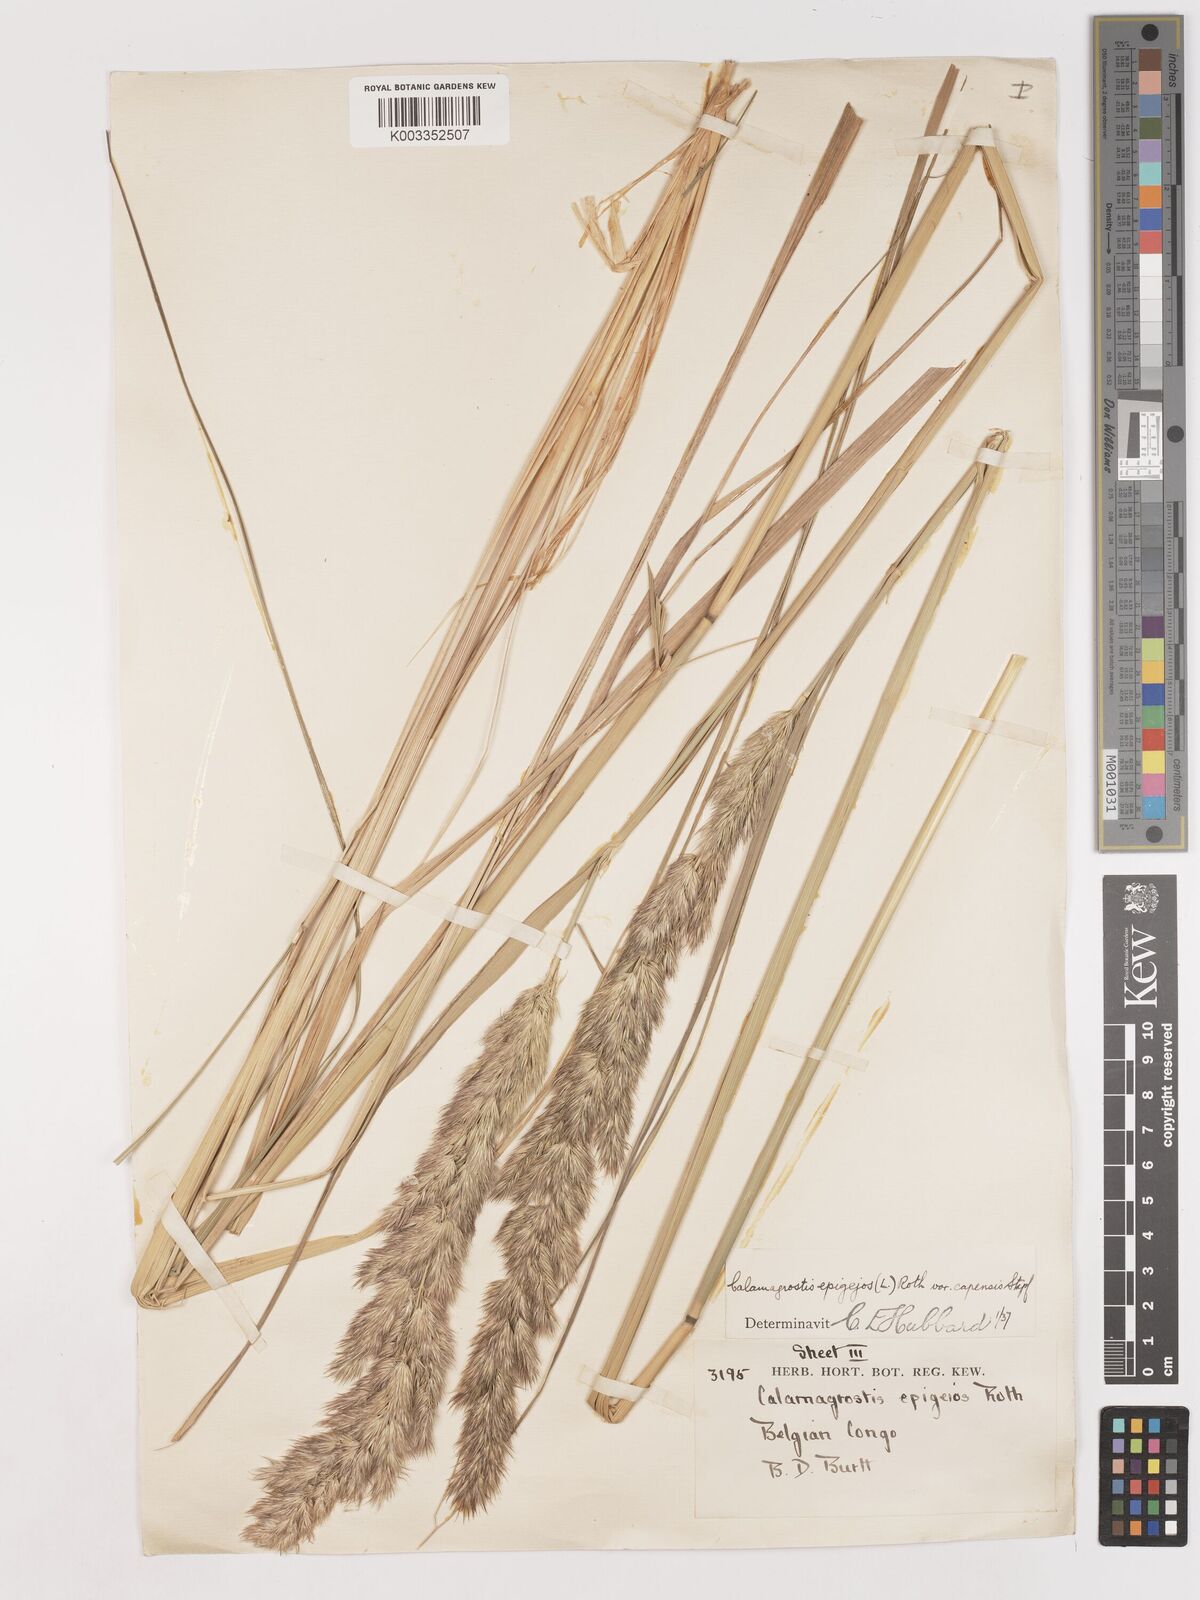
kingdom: Plantae
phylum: Tracheophyta
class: Liliopsida
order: Poales
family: Poaceae
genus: Calamagrostis
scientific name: Calamagrostis epigejos
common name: Wood small-reed
